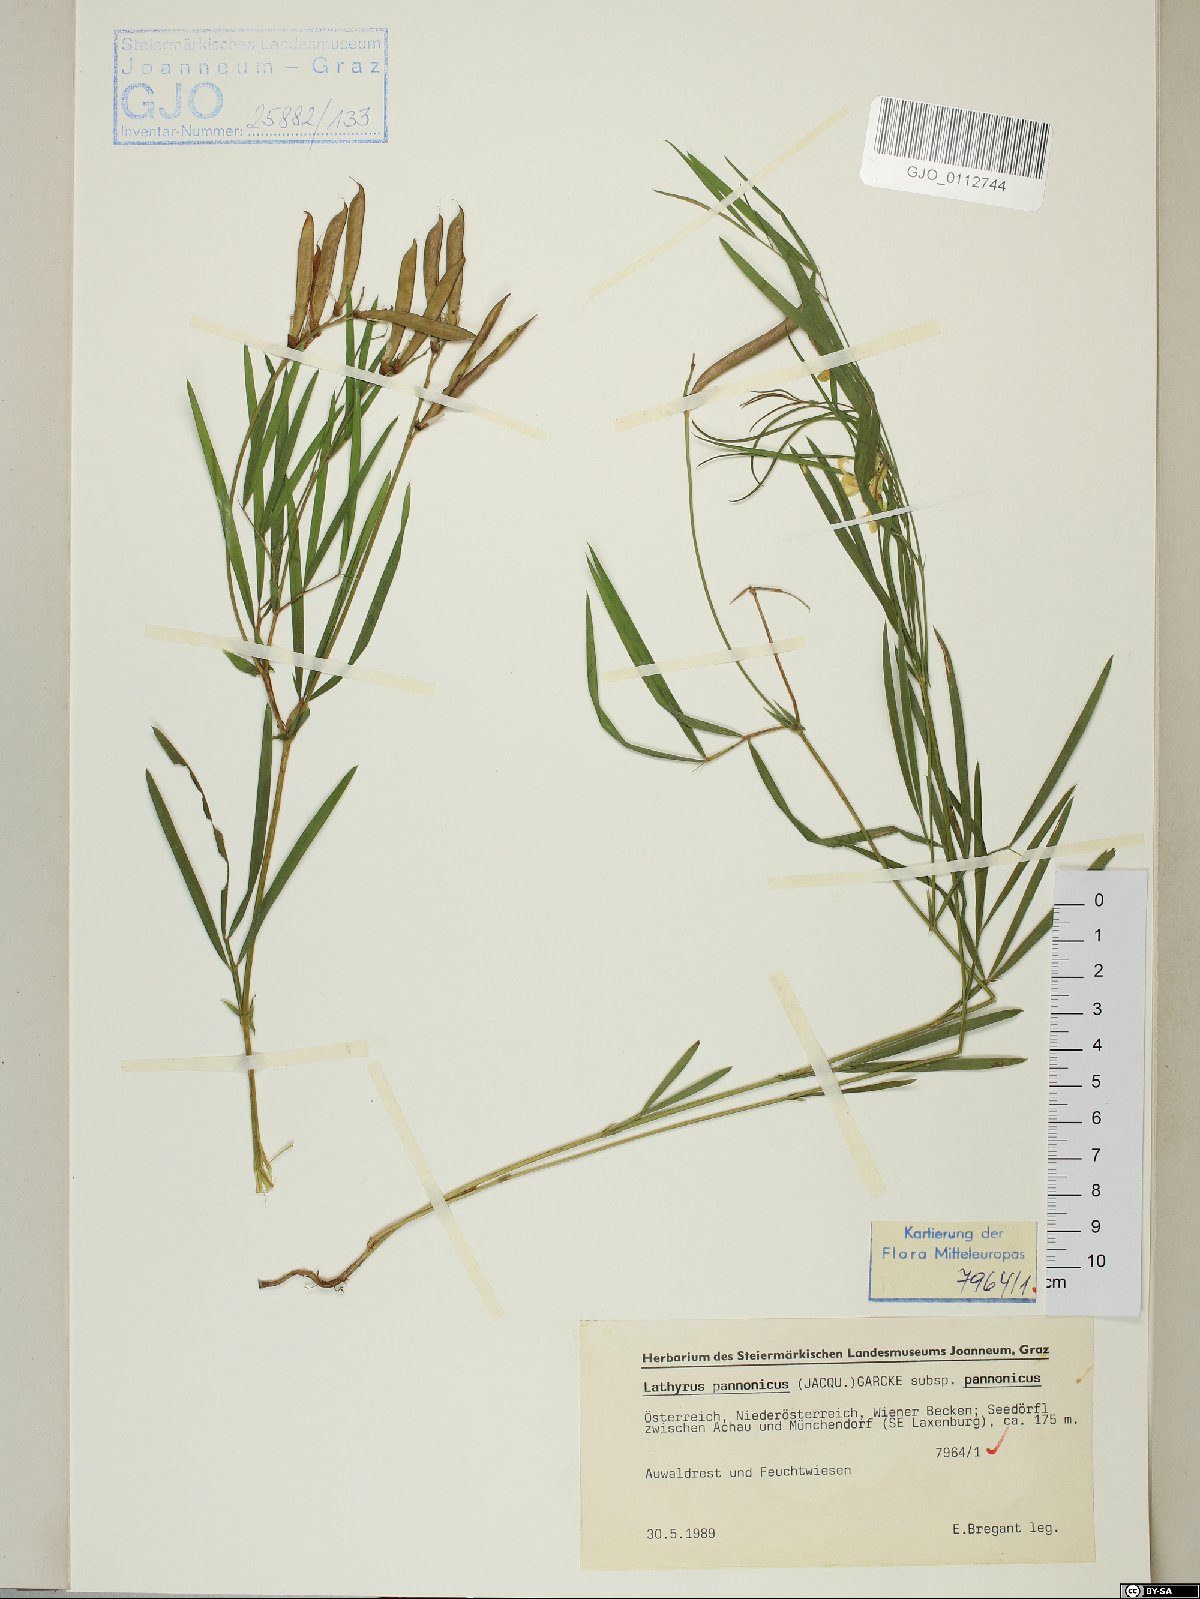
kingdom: Plantae
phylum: Tracheophyta
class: Magnoliopsida
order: Fabales
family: Fabaceae
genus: Lathyrus
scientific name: Lathyrus pannonicus
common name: Pea
